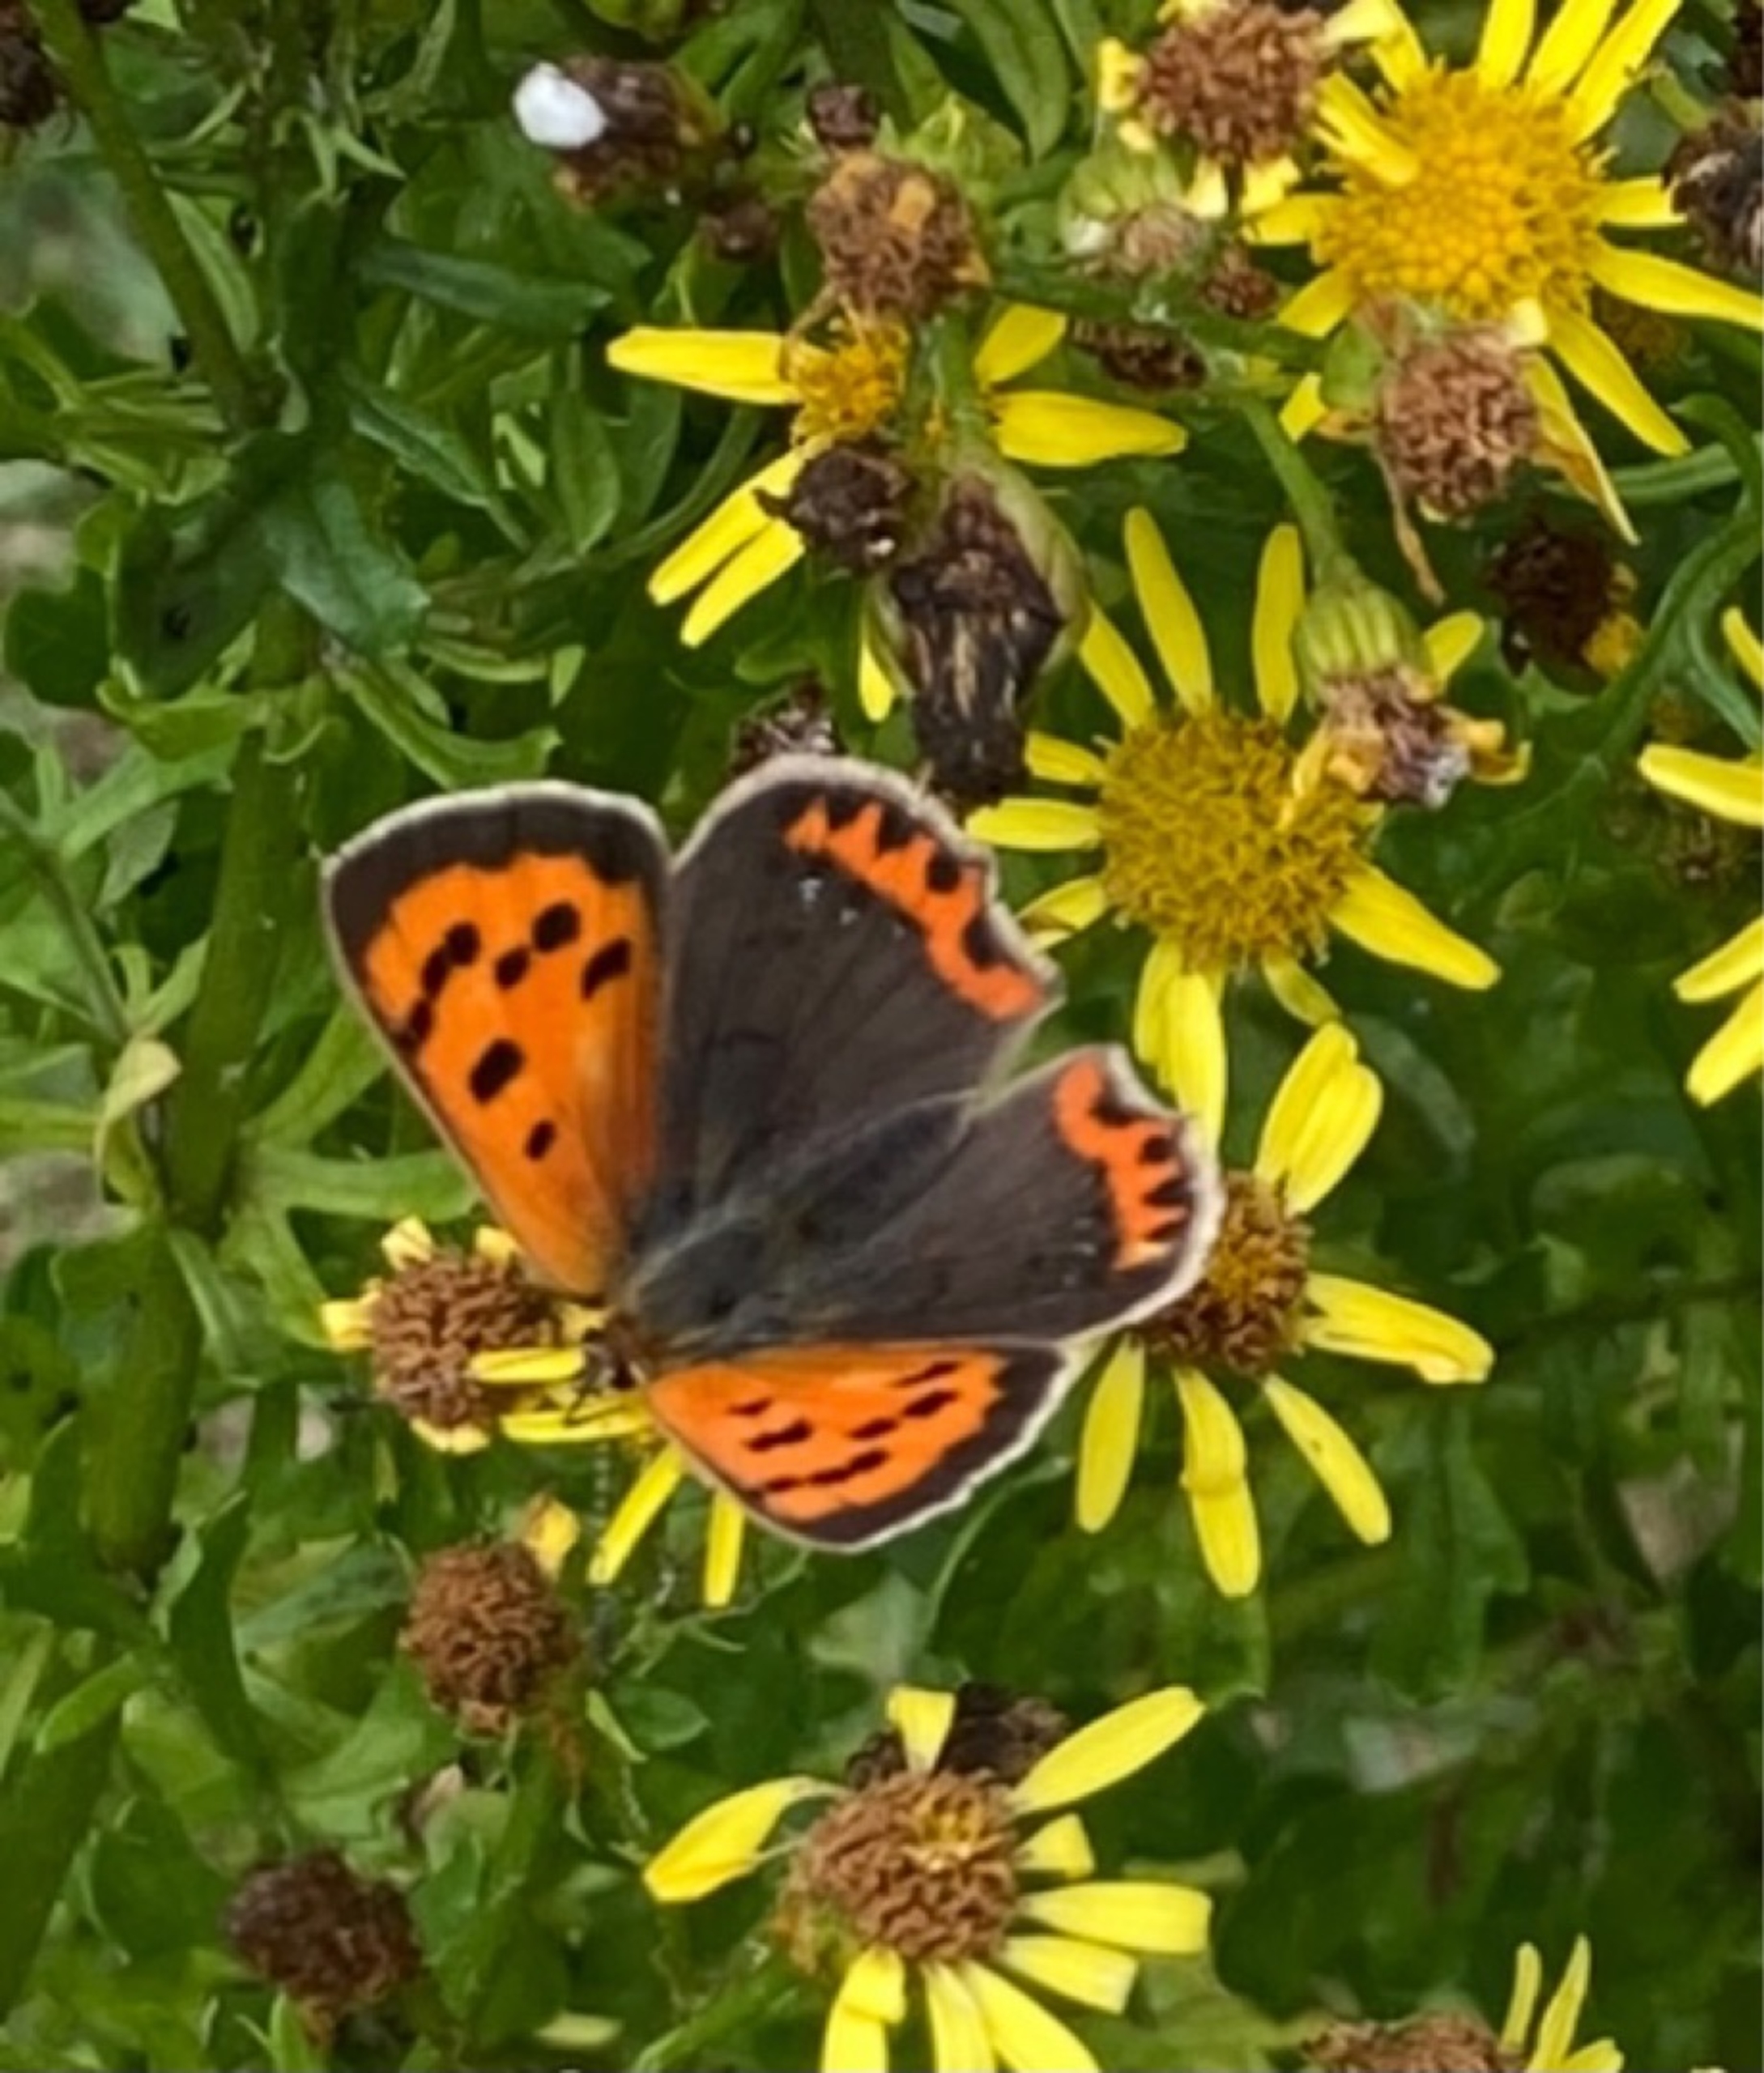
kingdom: Animalia
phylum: Arthropoda
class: Insecta
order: Lepidoptera
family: Lycaenidae
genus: Lycaena
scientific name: Lycaena phlaeas
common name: Lille ildfugl
